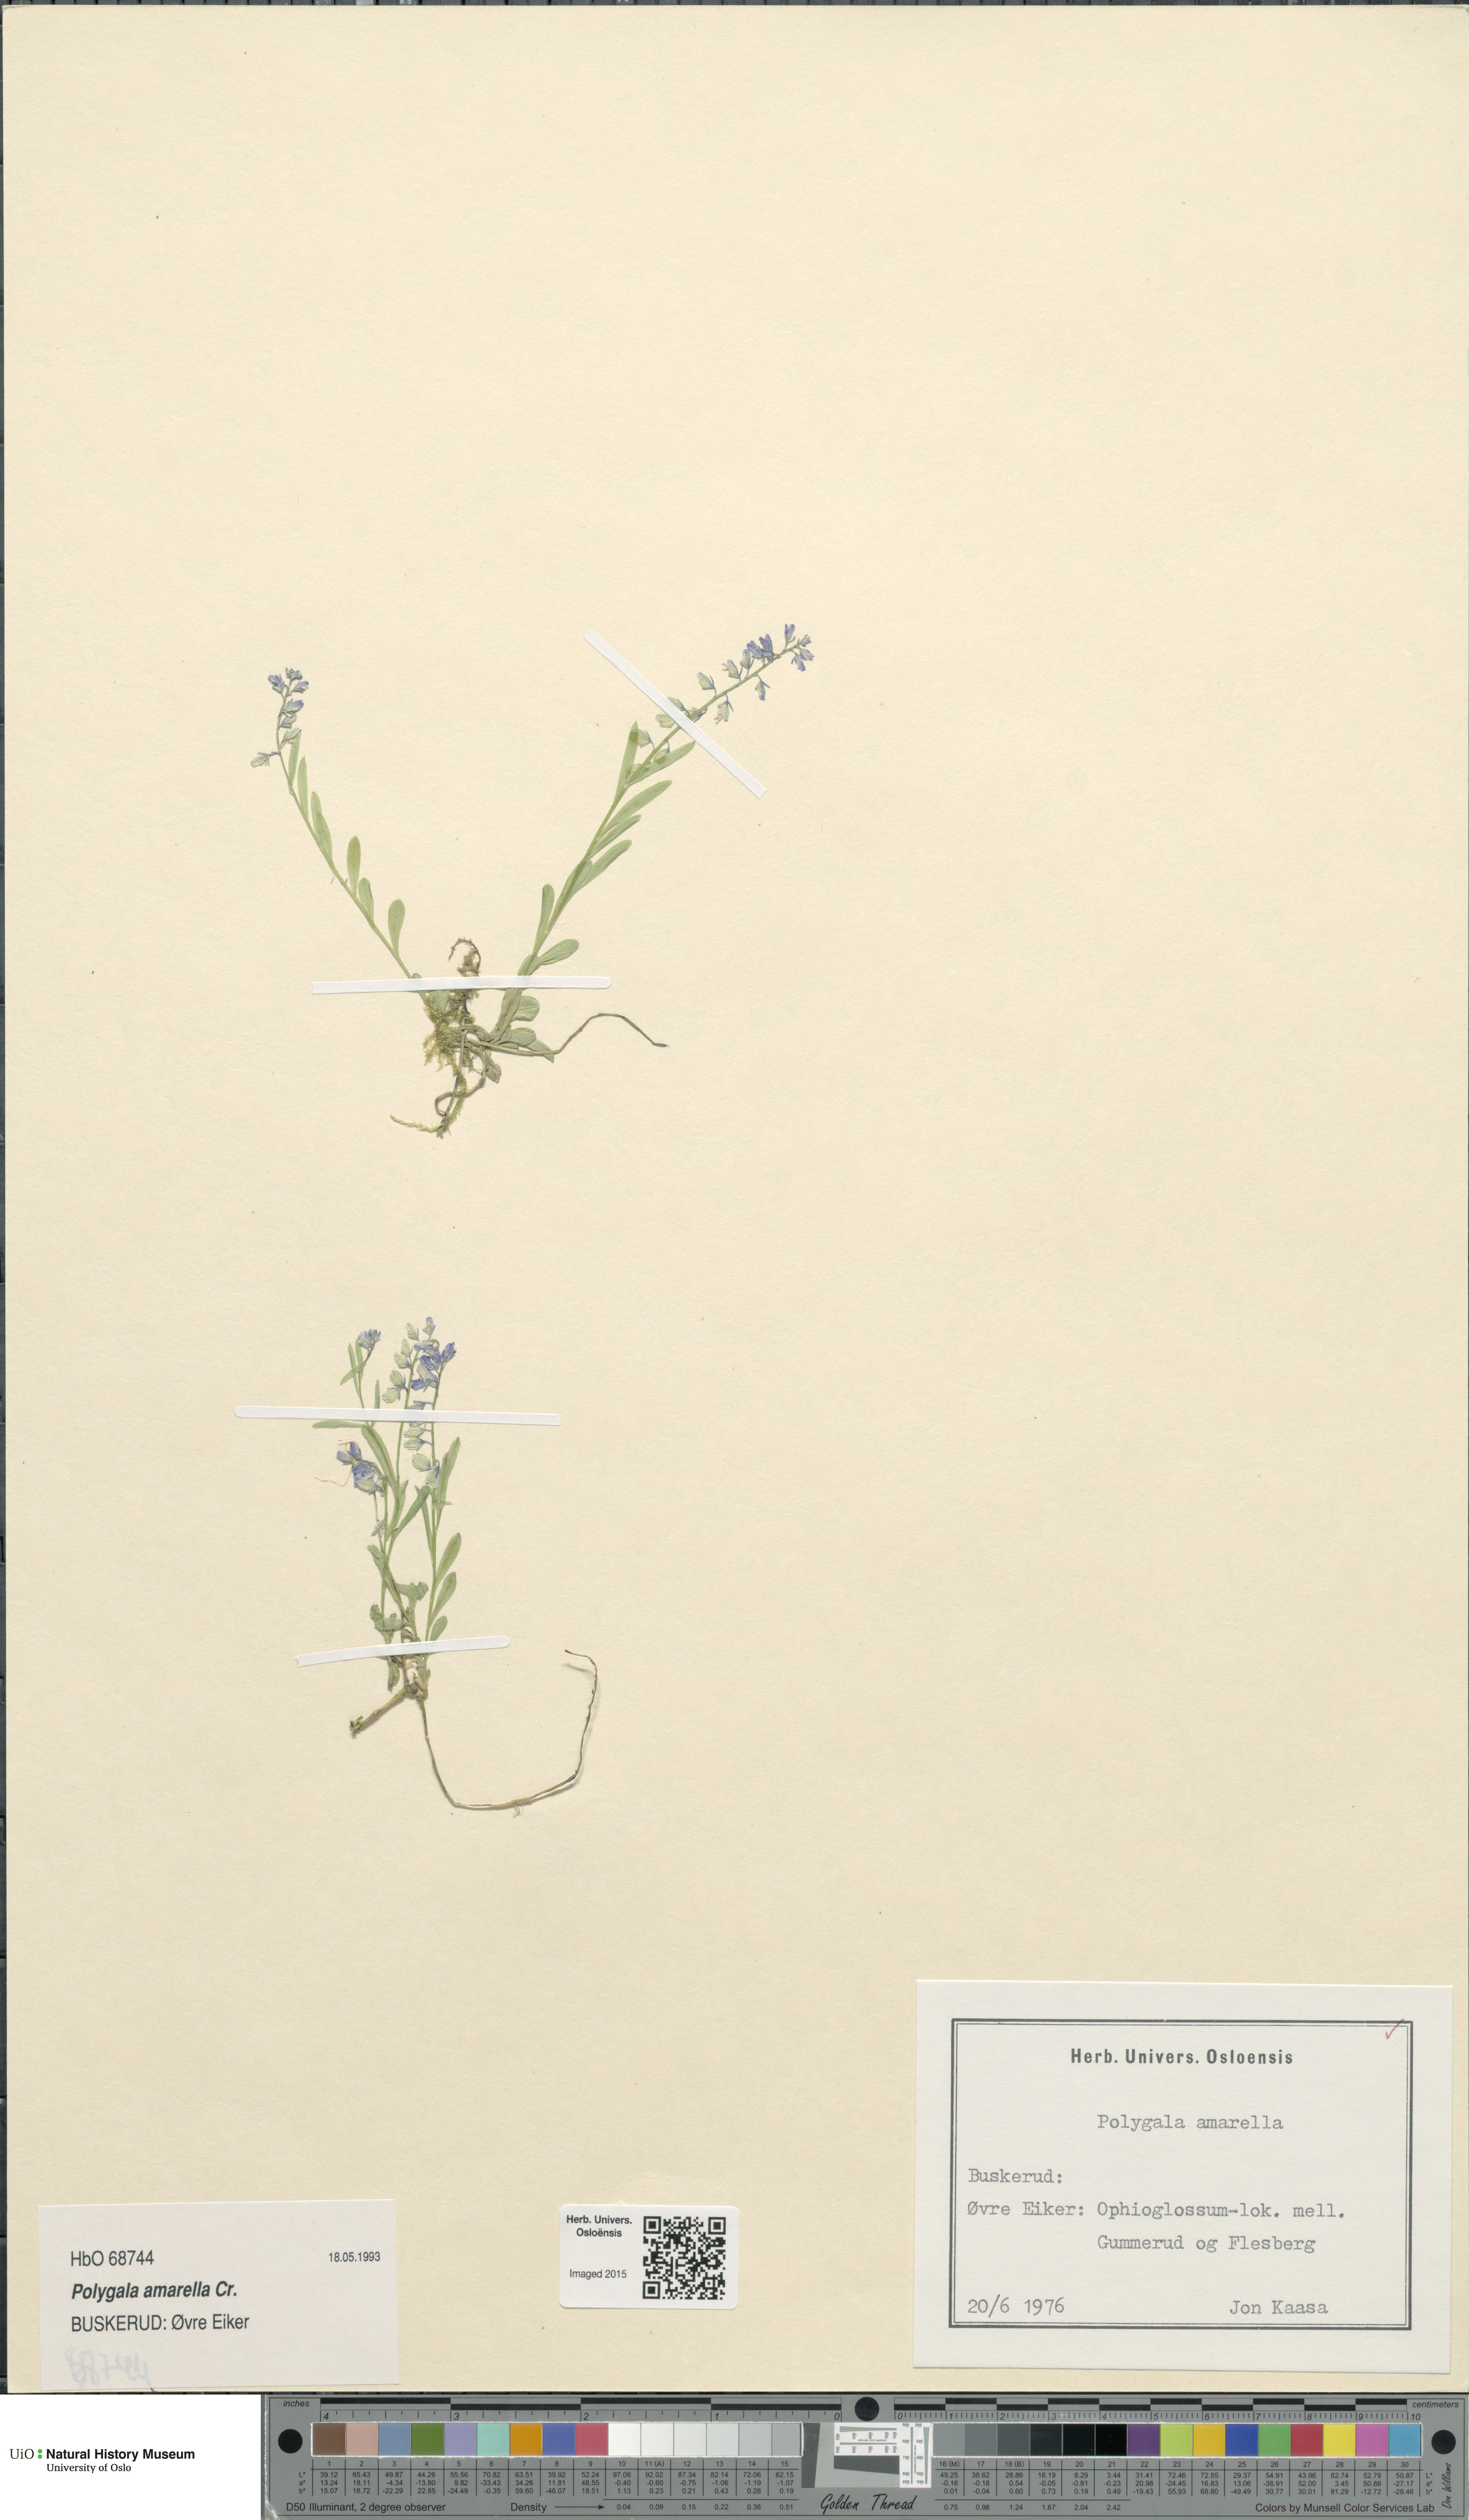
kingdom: Plantae
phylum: Tracheophyta
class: Magnoliopsida
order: Fabales
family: Polygalaceae
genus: Polygala
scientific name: Polygala amarella
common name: Dwarf milkwort
